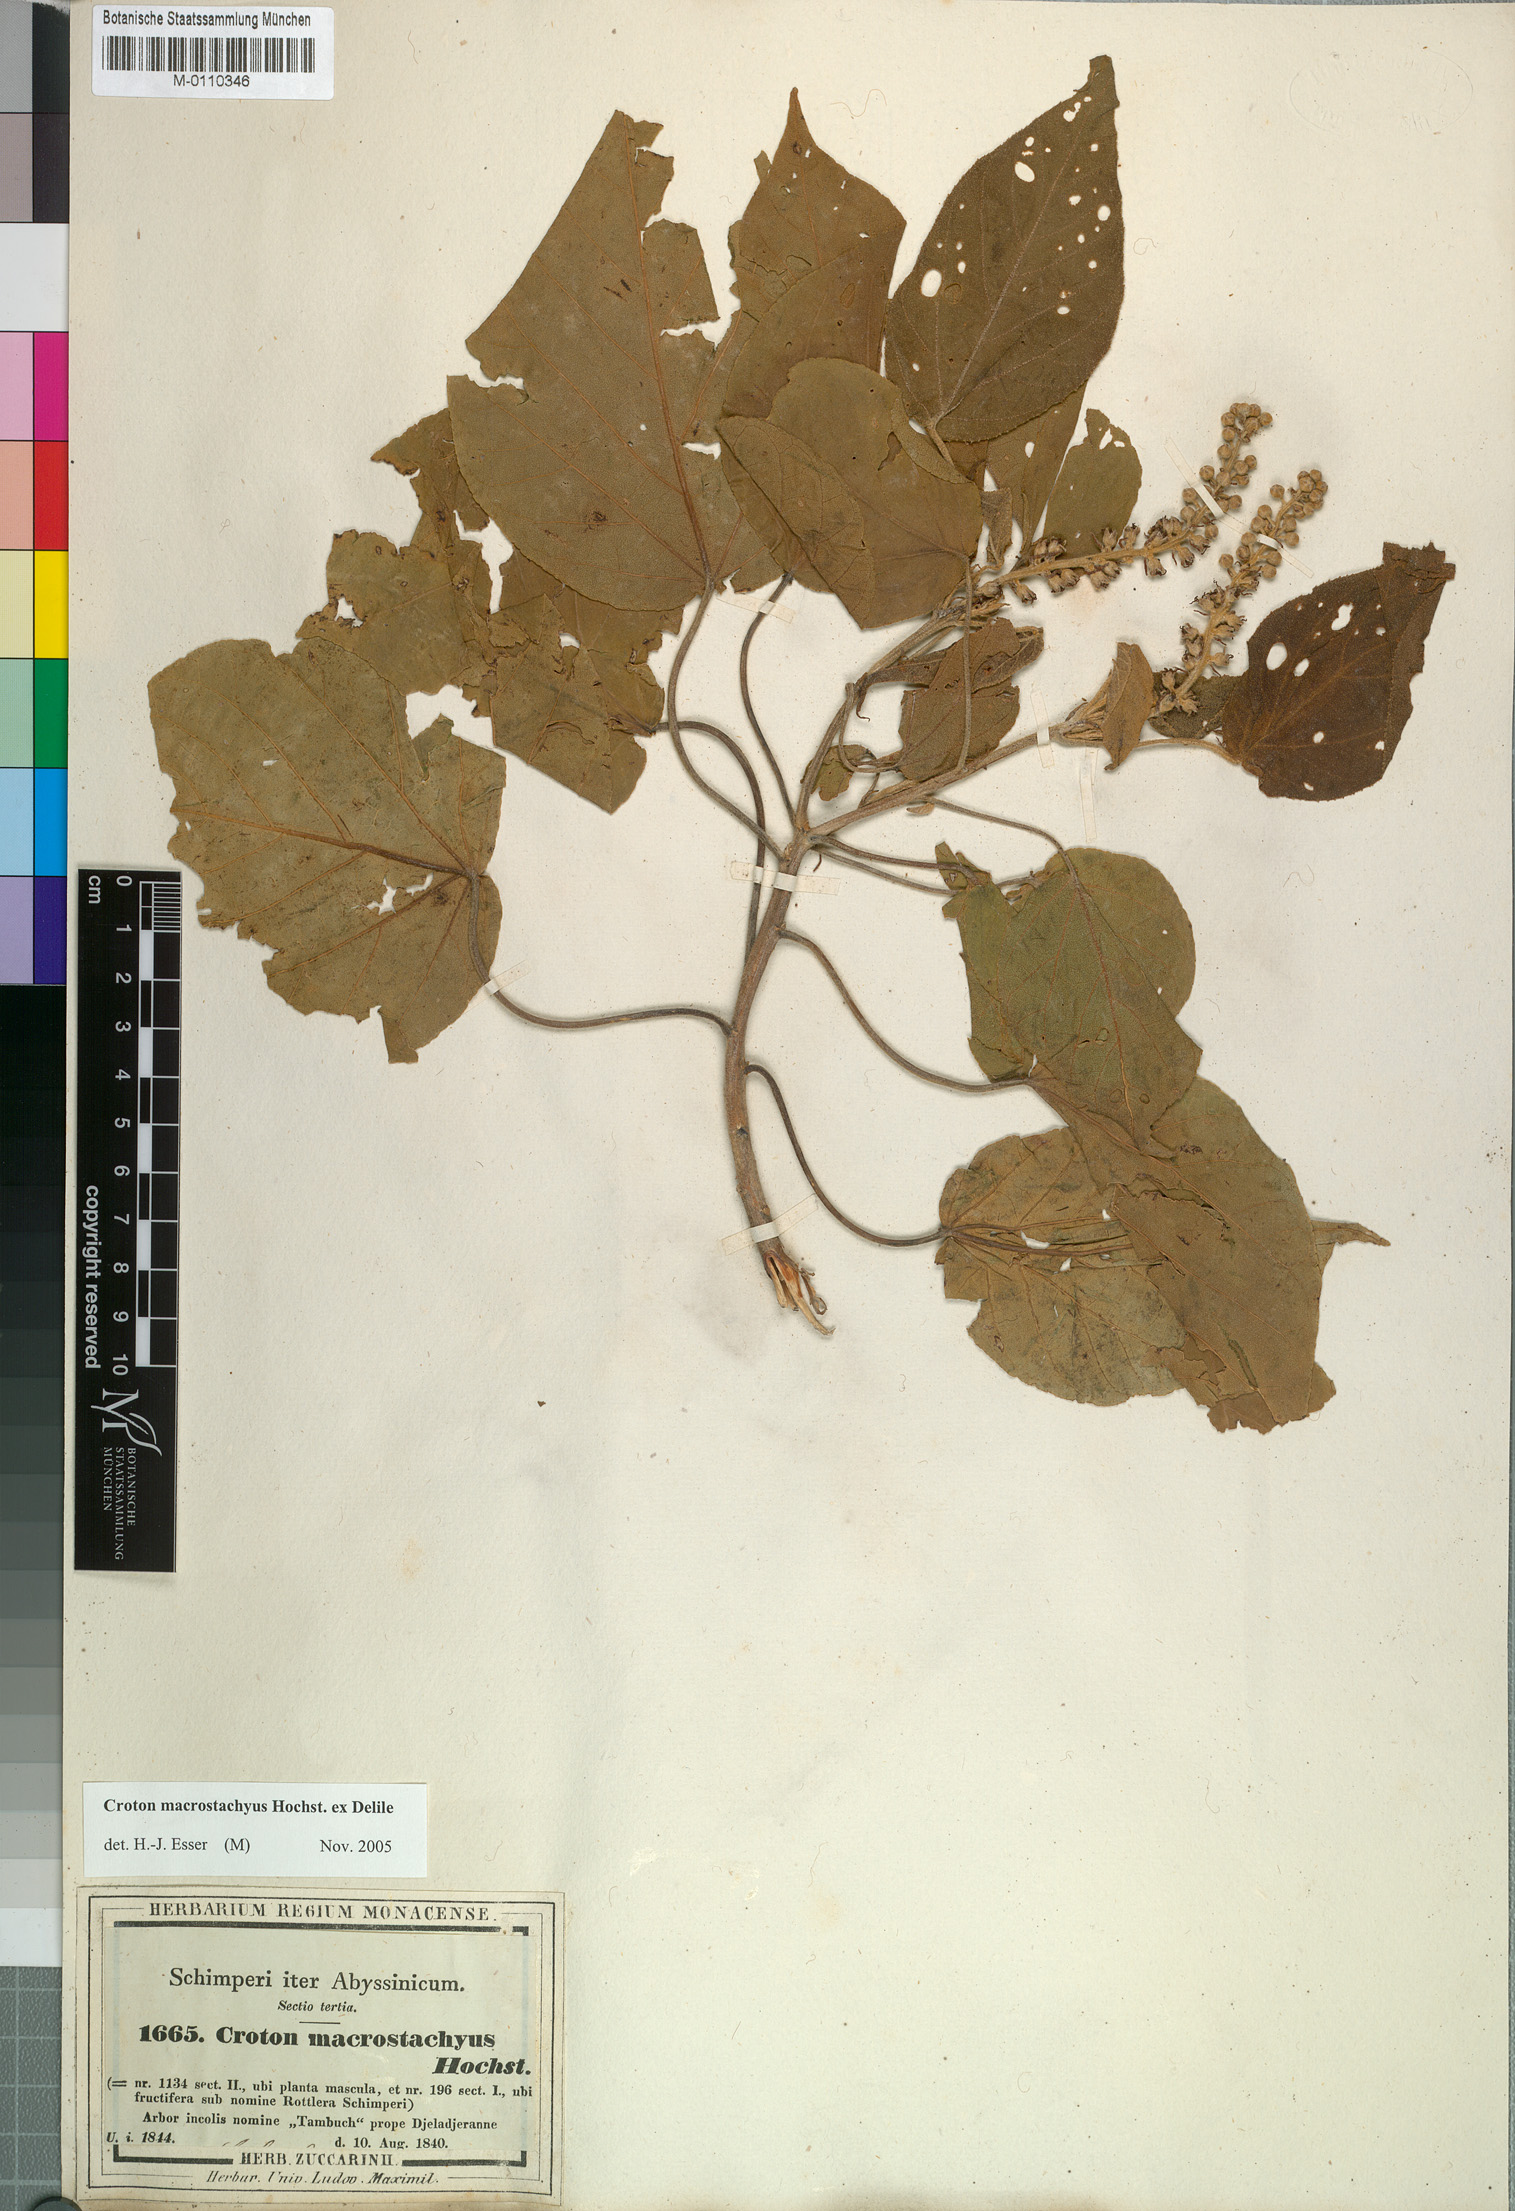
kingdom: Plantae
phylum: Tracheophyta
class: Magnoliopsida
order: Malpighiales
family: Euphorbiaceae
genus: Croton
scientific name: Croton macrostachyus
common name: Mutundu
